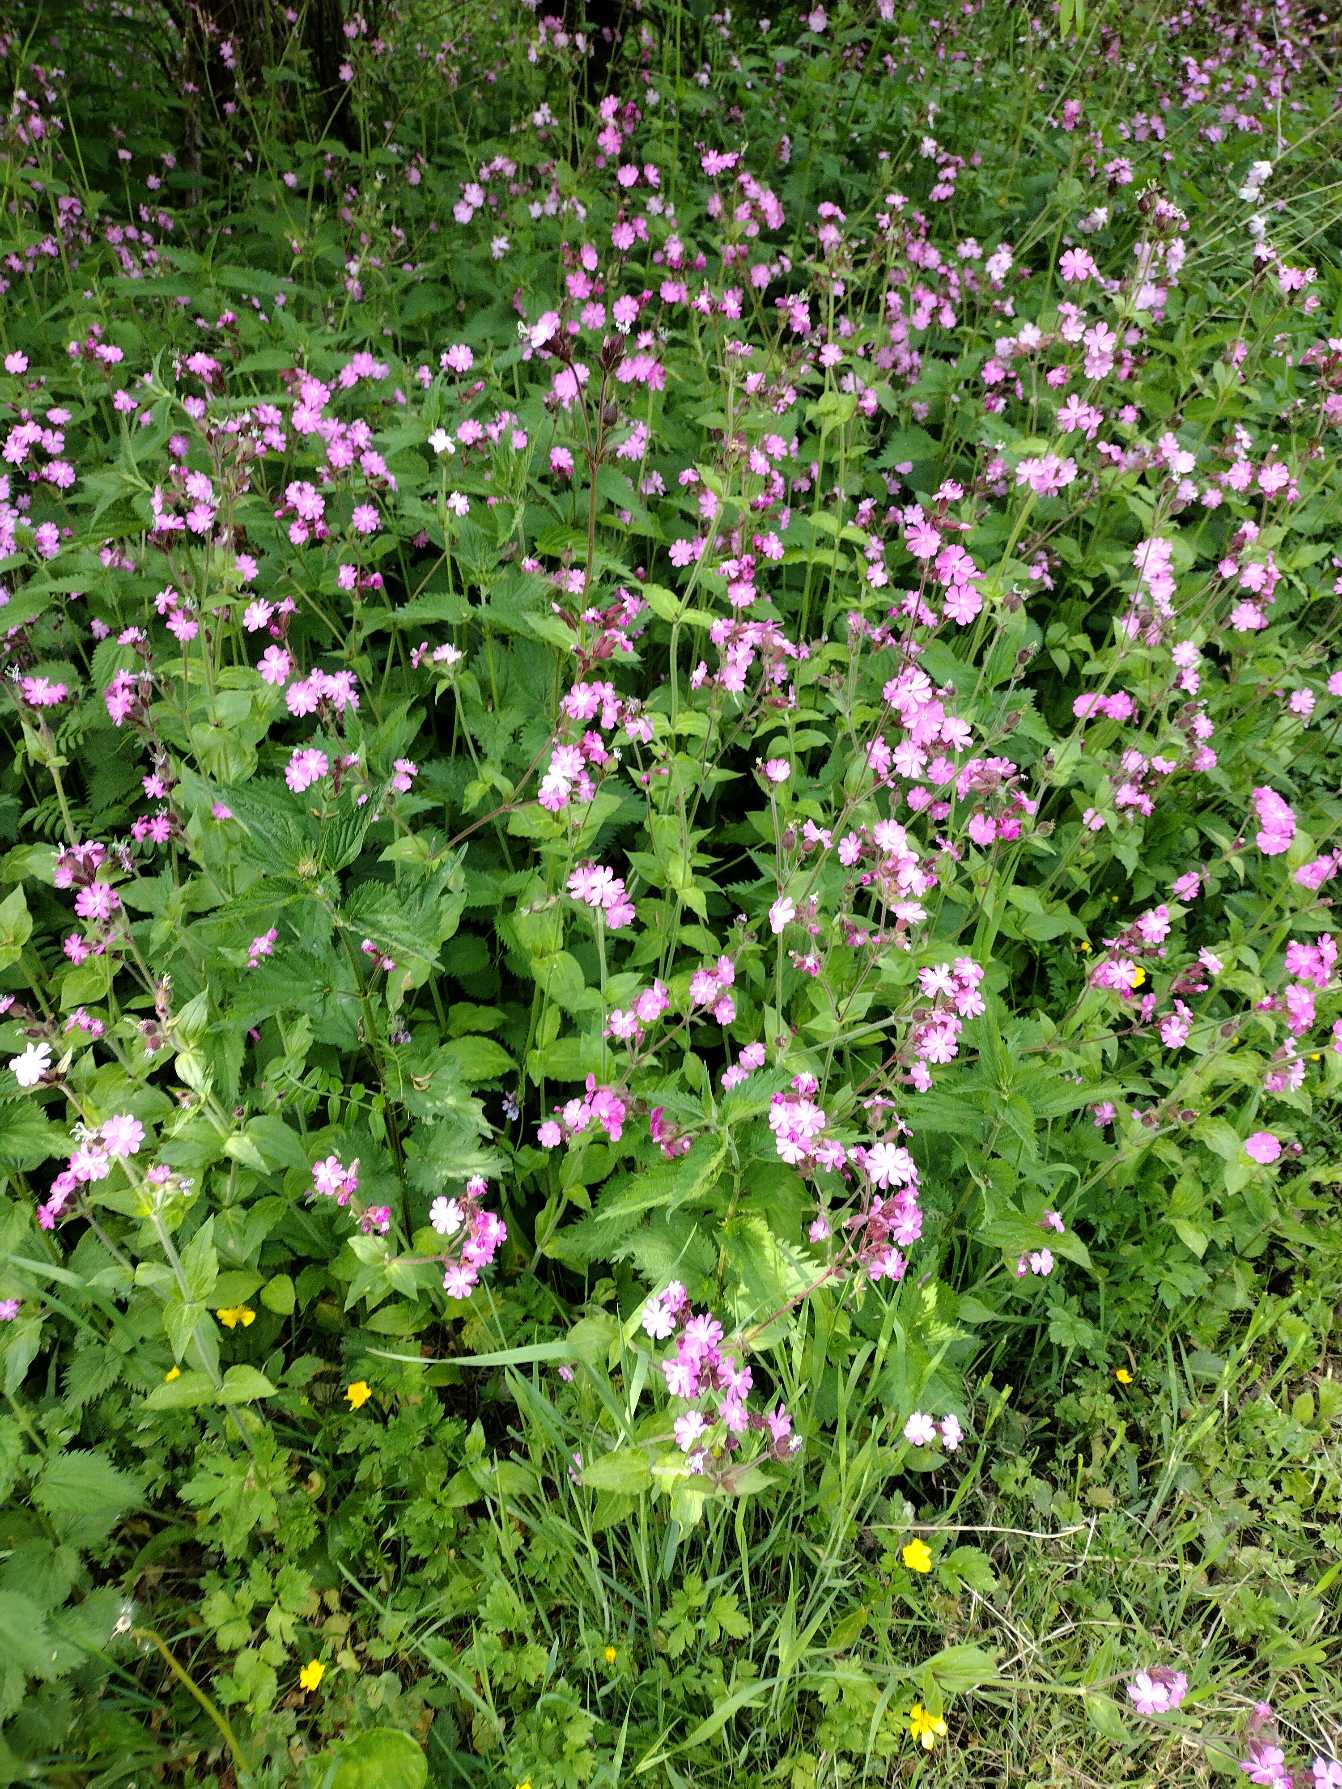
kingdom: Plantae
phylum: Tracheophyta
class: Magnoliopsida
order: Caryophyllales
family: Caryophyllaceae
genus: Silene
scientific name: Silene dioica
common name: Dagpragtstjerne
